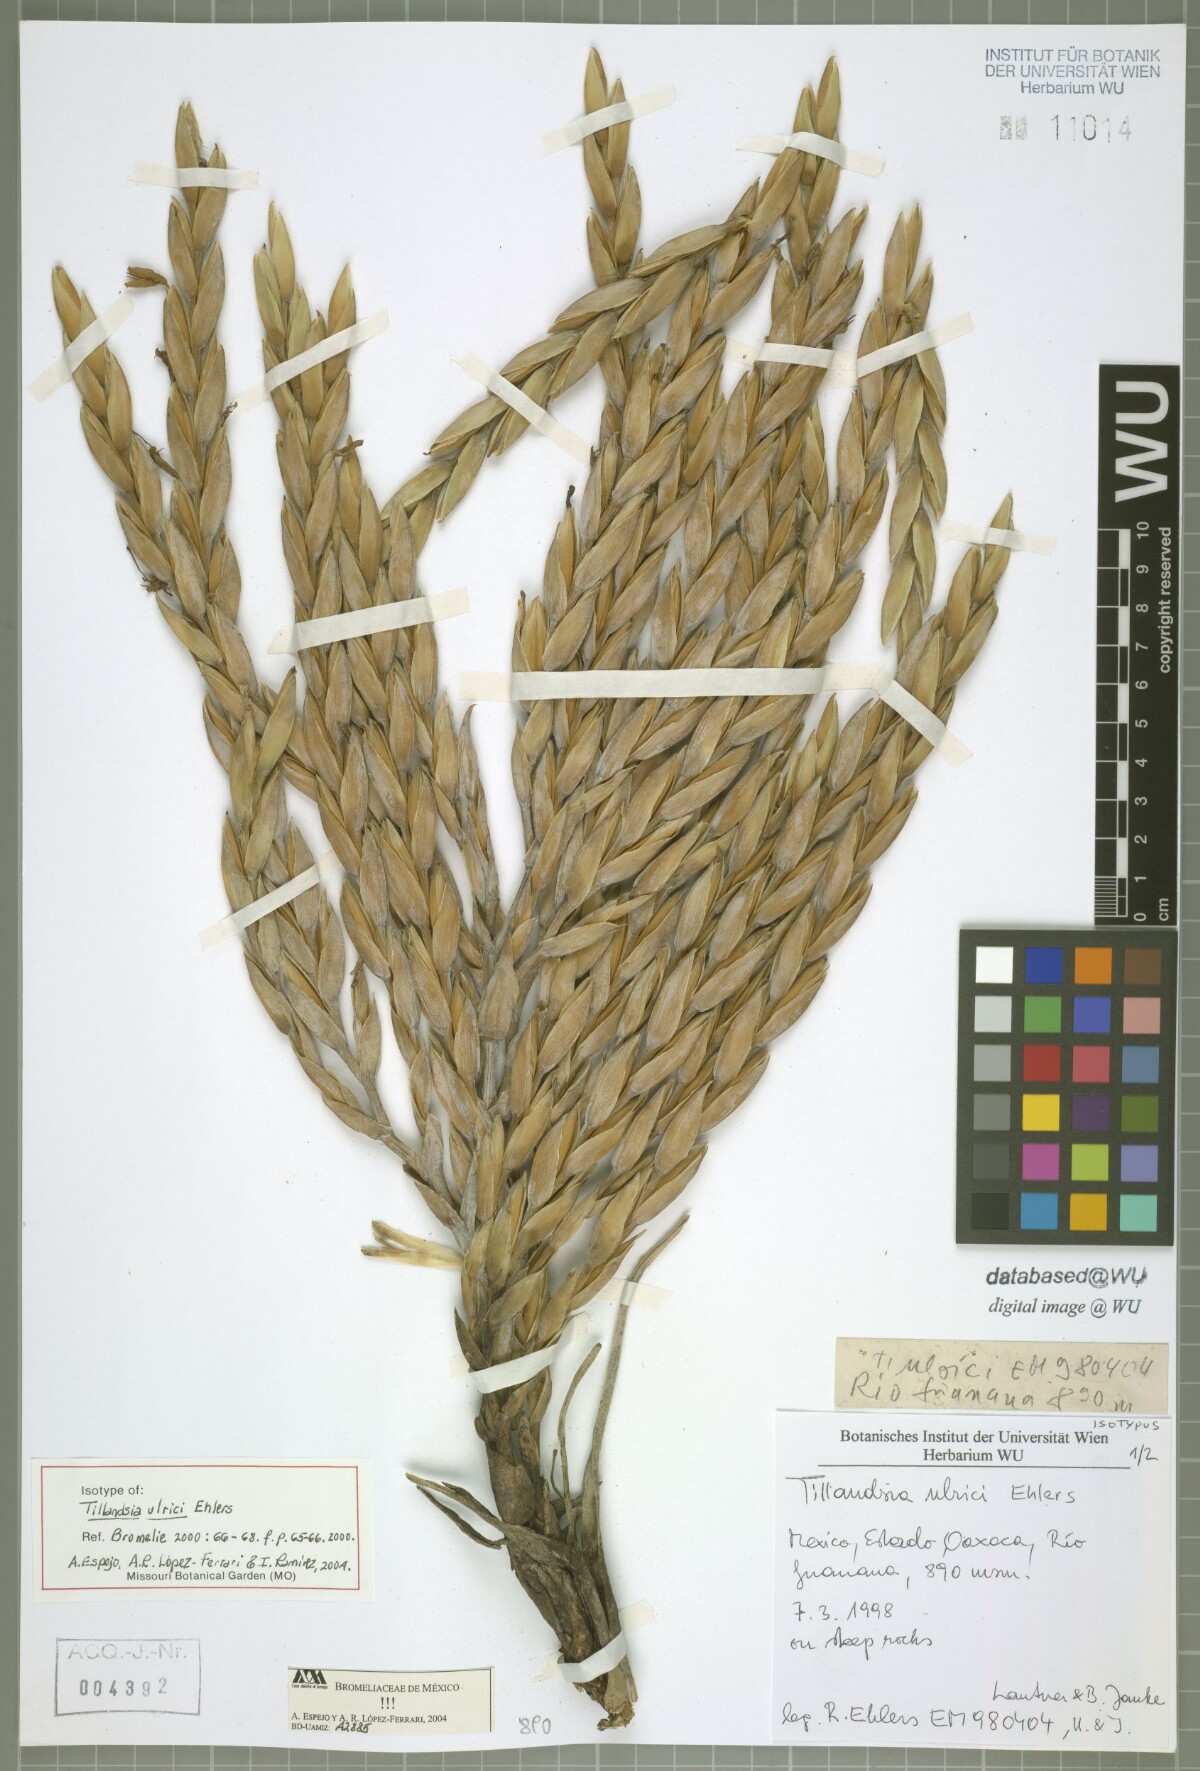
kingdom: Plantae
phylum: Tracheophyta
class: Liliopsida
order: Poales
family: Bromeliaceae
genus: Tillandsia
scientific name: Tillandsia ulrici
